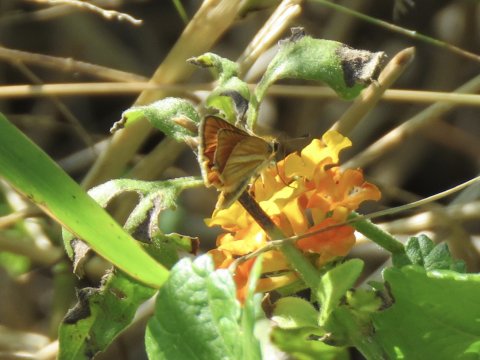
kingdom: Animalia
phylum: Arthropoda
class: Insecta
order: Lepidoptera
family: Hesperiidae
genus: Copaeodes
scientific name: Copaeodes minima
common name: Southern Skipperling
